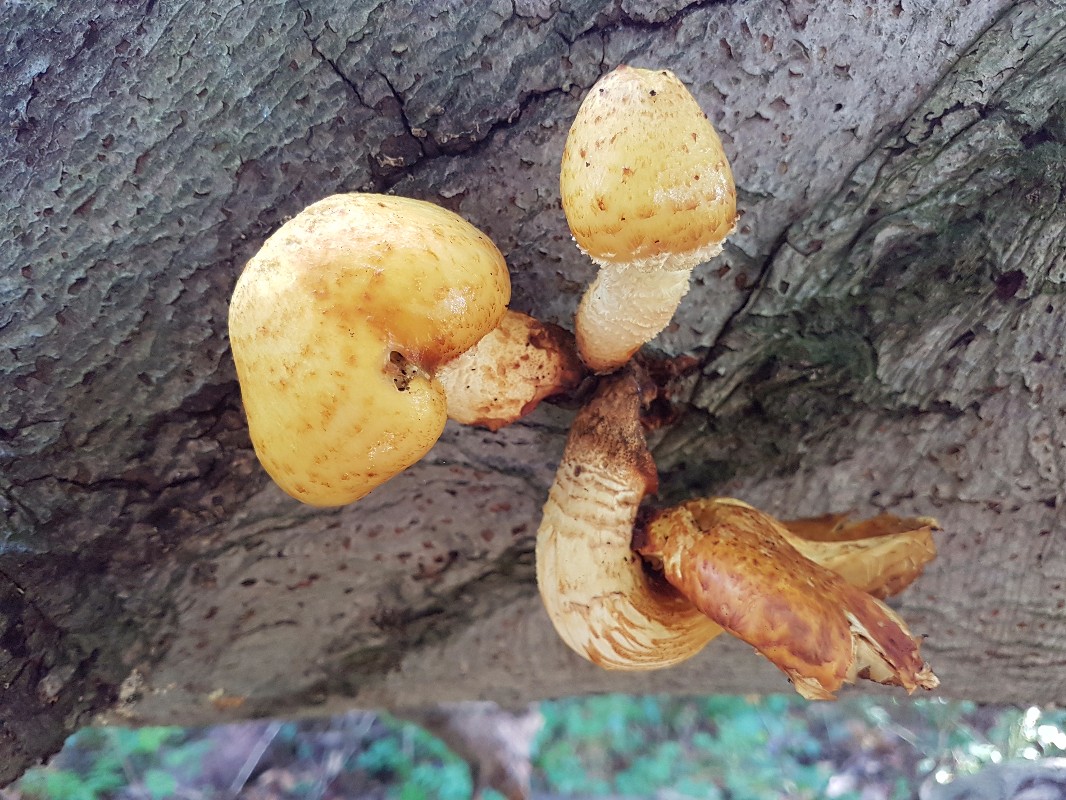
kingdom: Fungi
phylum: Basidiomycota
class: Agaricomycetes
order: Agaricales
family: Strophariaceae
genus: Pholiota
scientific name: Pholiota adiposa
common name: højtsiddende skælhat
